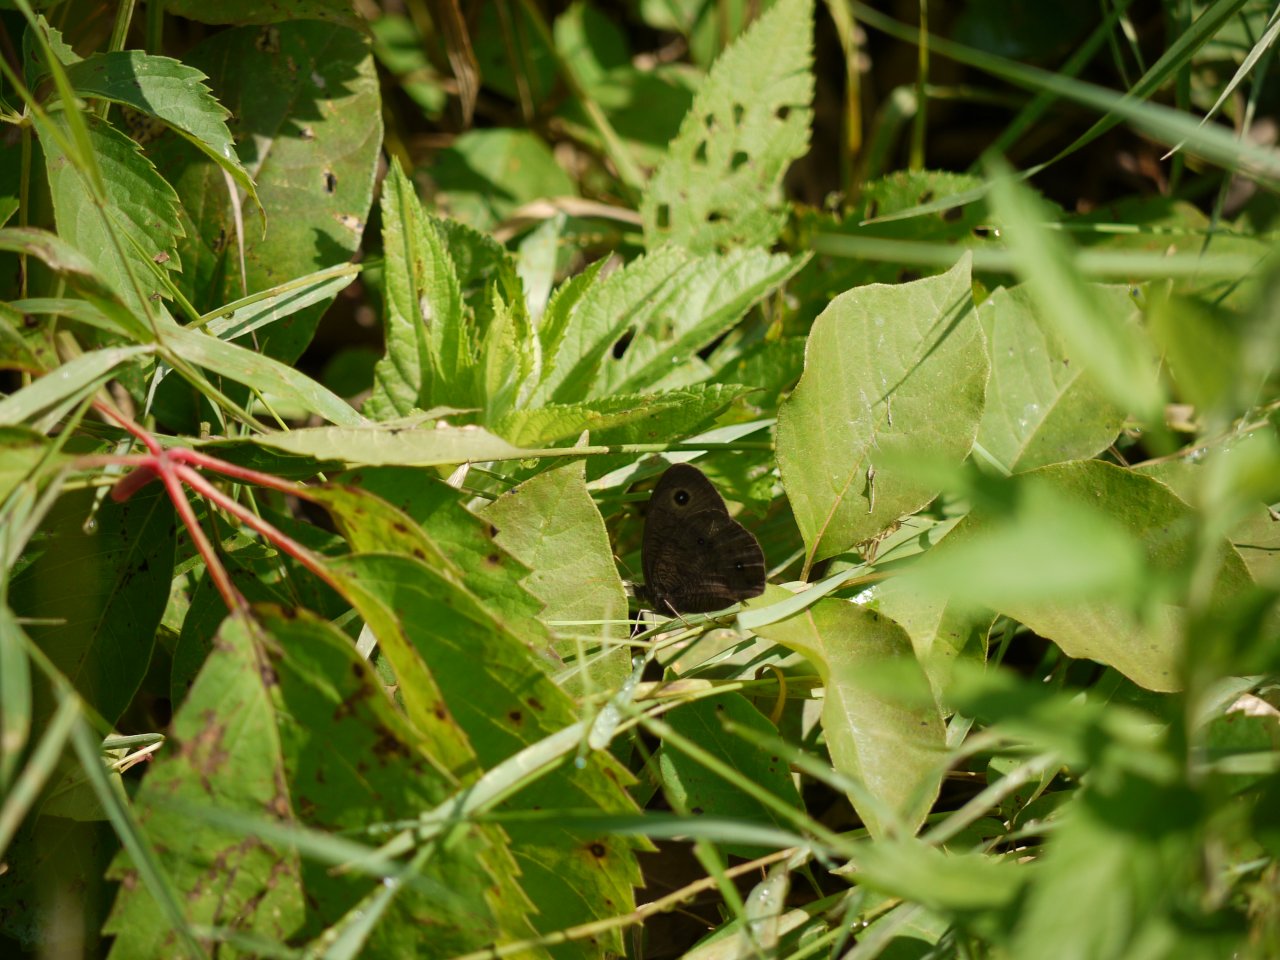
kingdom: Animalia
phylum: Arthropoda
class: Insecta
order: Lepidoptera
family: Nymphalidae
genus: Cercyonis
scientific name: Cercyonis pegala
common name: Common Wood-Nymph
